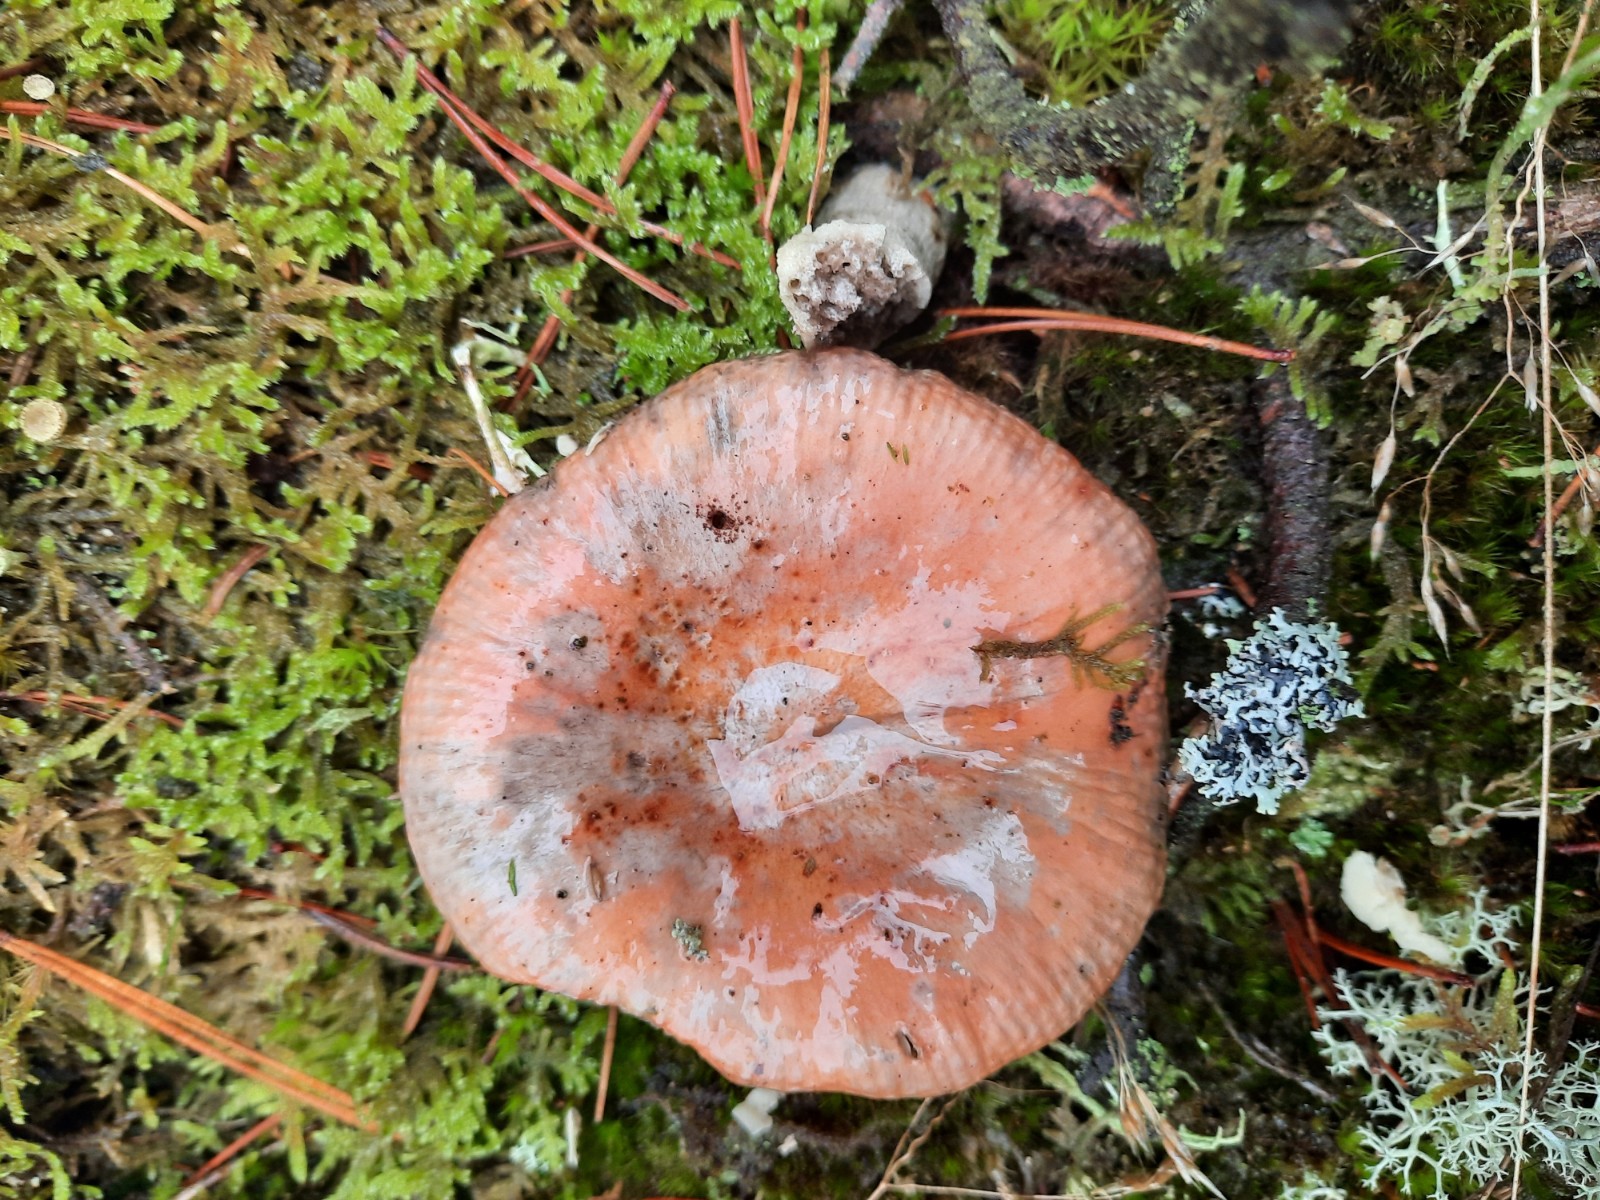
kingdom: Fungi
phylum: Basidiomycota
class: Agaricomycetes
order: Russulales
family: Russulaceae
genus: Russula
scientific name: Russula decolorans
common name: afblegende skørhat
